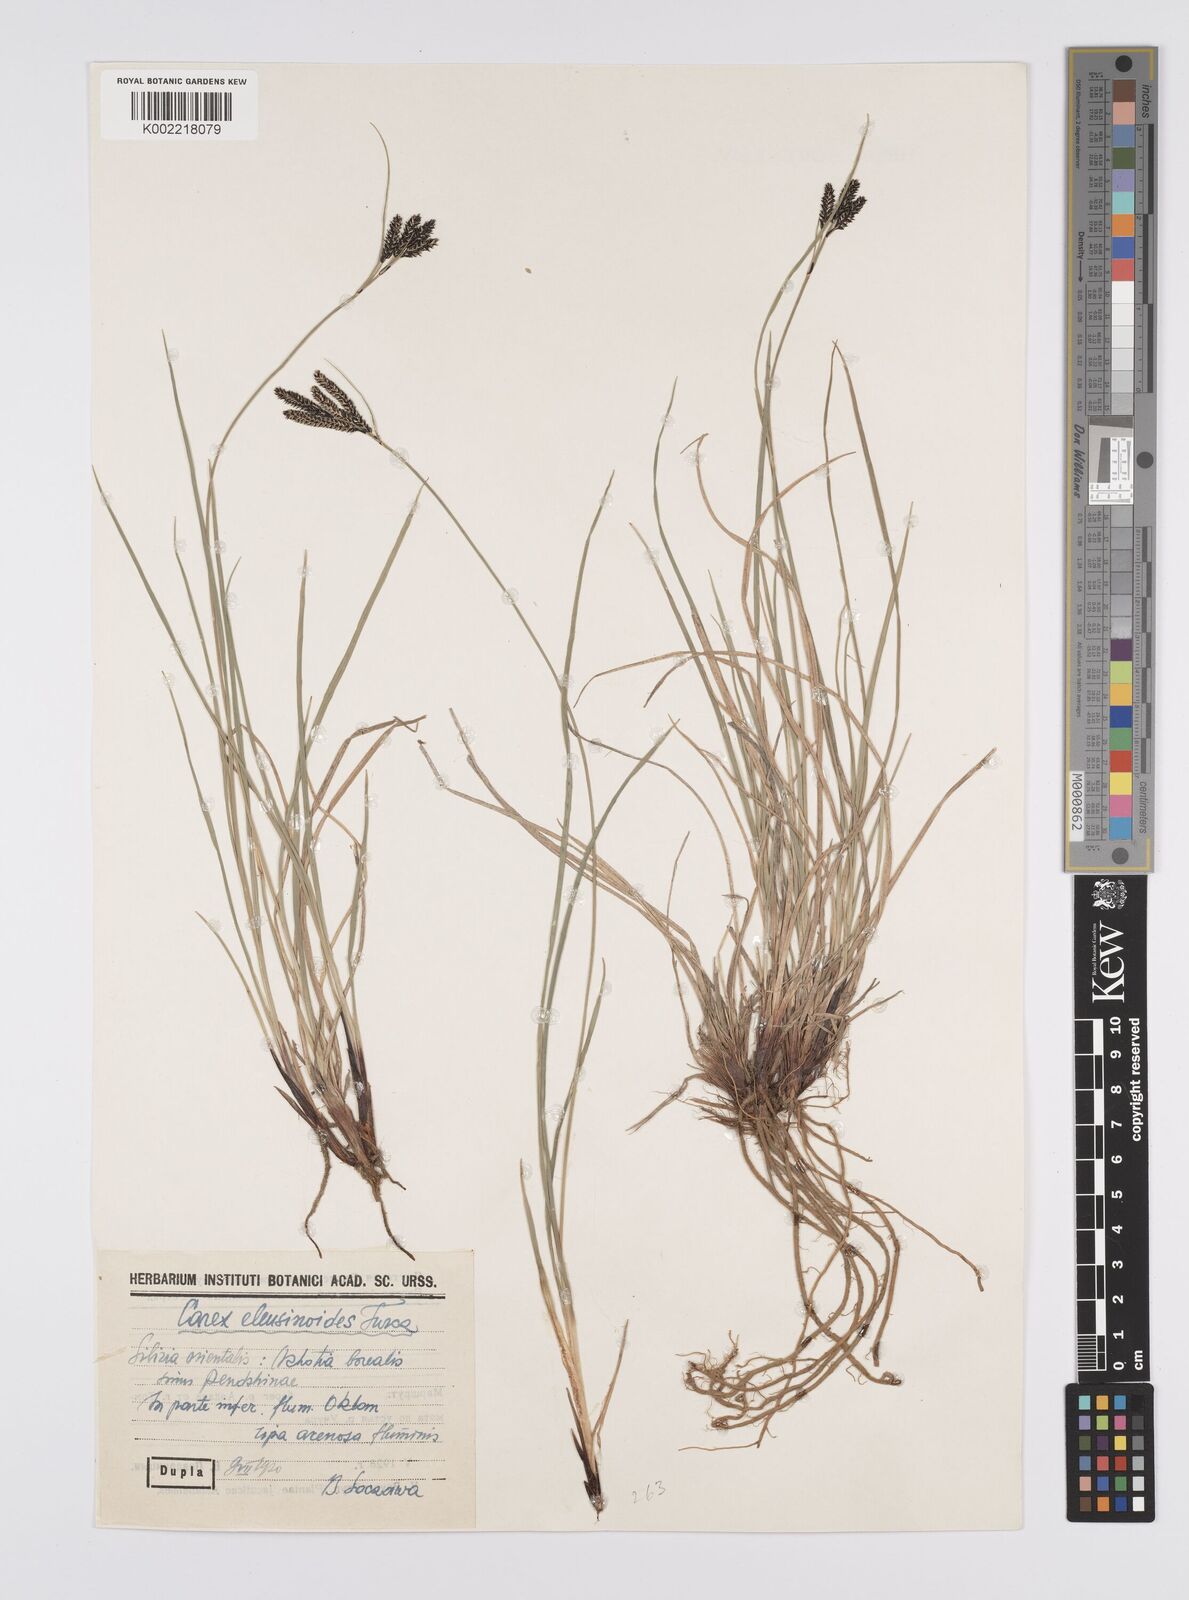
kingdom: Plantae
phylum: Tracheophyta
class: Liliopsida
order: Poales
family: Cyperaceae
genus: Carex
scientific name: Carex eleusinoides
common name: Goosegrass sedge
